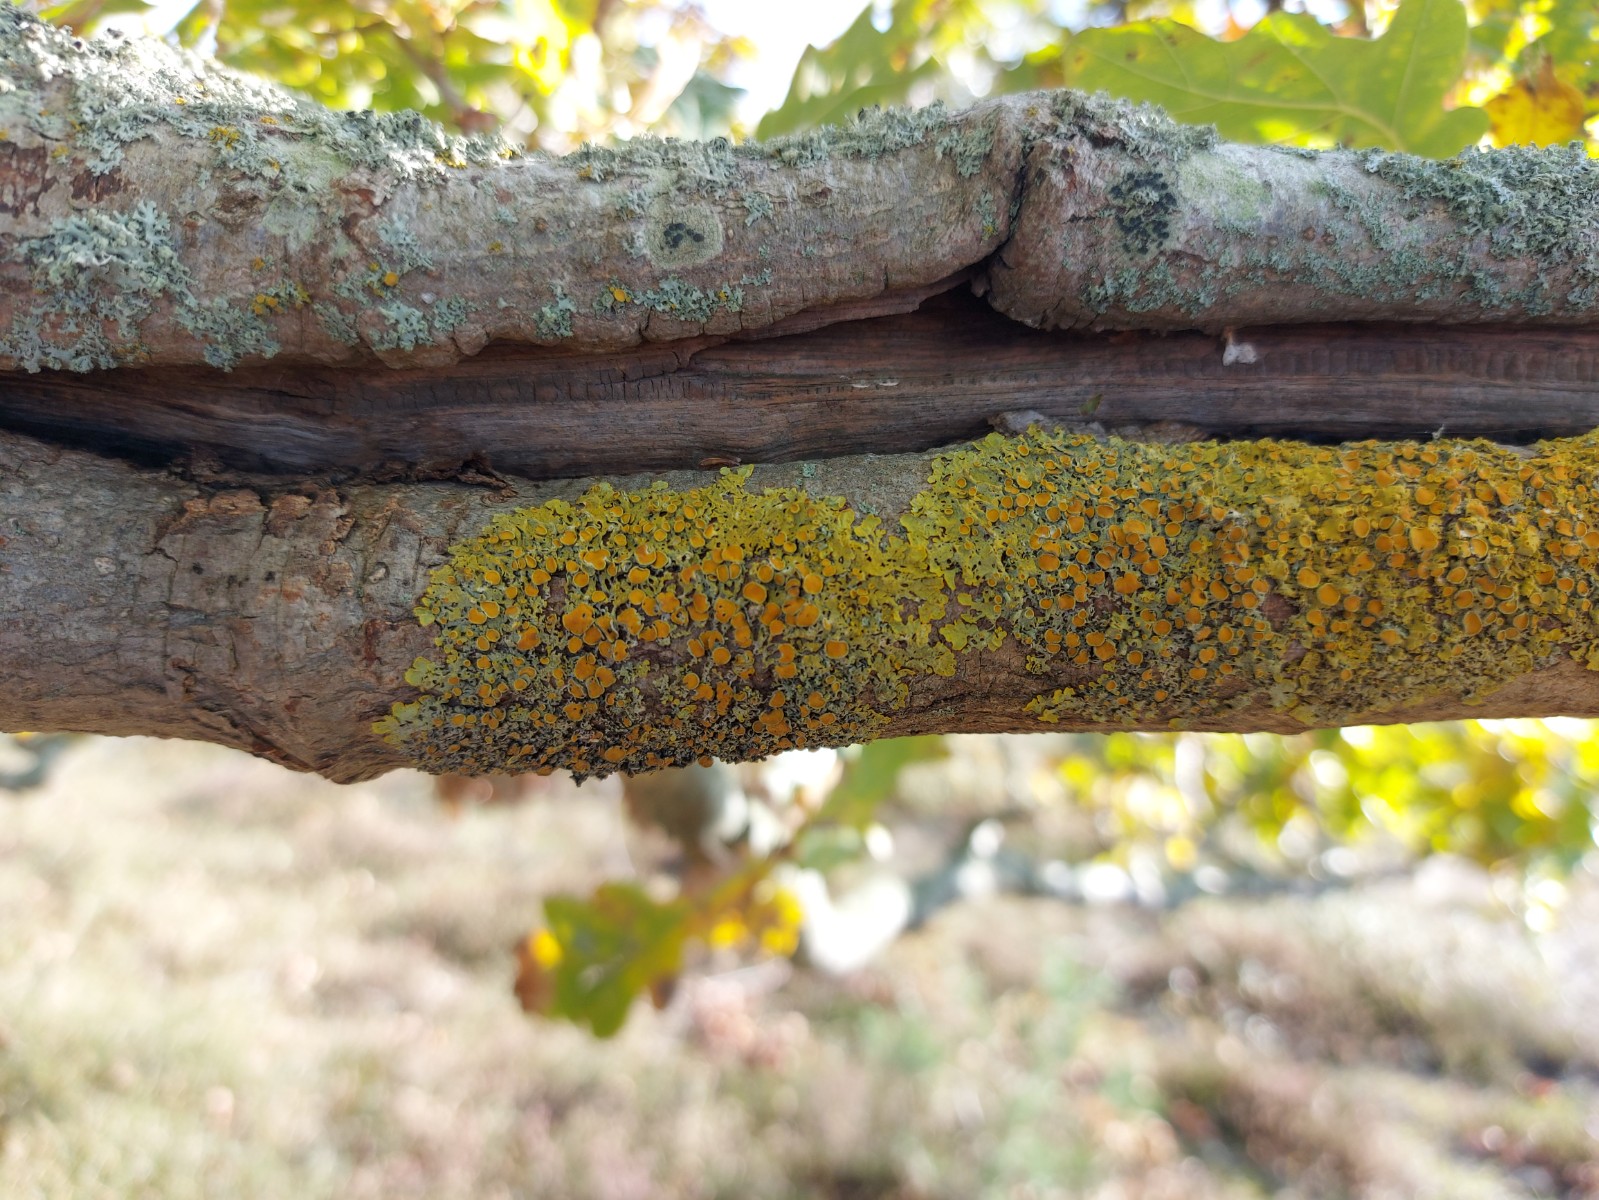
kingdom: Fungi
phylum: Ascomycota
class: Lecanoromycetes
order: Teloschistales
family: Teloschistaceae
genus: Xanthoria
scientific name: Xanthoria parietina
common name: almindelig væggelav
